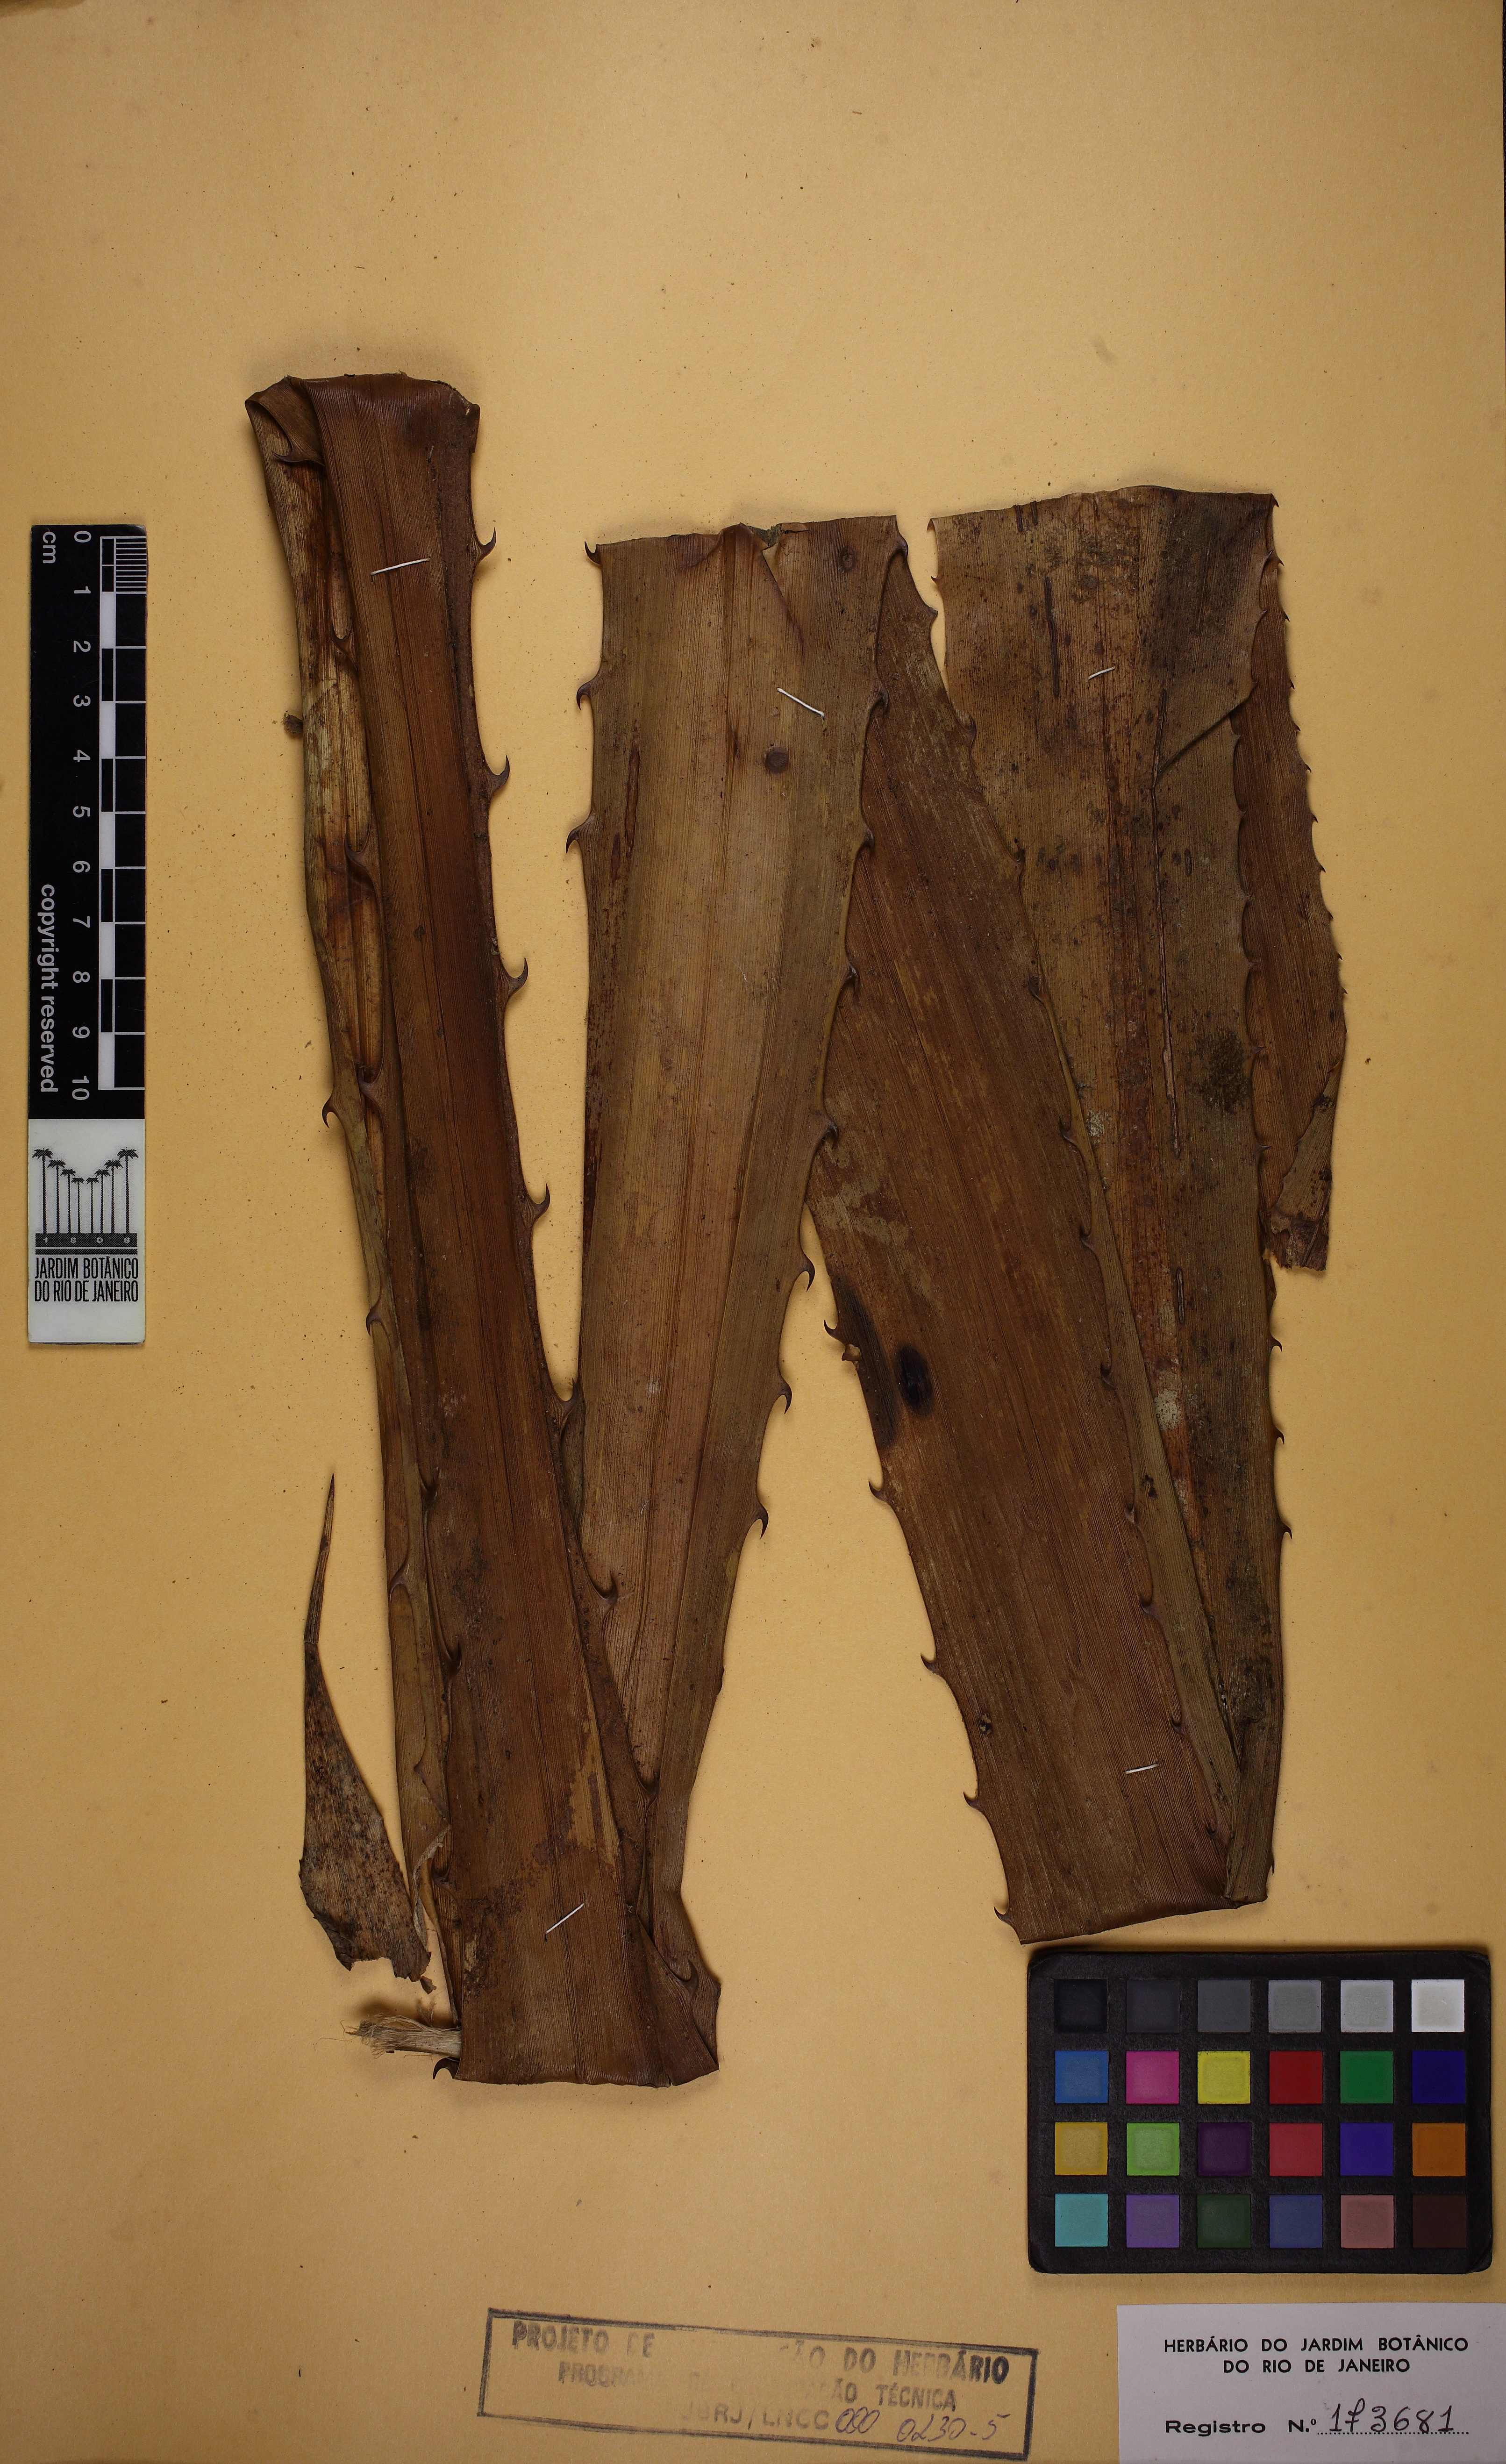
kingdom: Plantae
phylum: Tracheophyta
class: Liliopsida
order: Poales
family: Bromeliaceae
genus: Aechmea
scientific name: Aechmea fernandae
